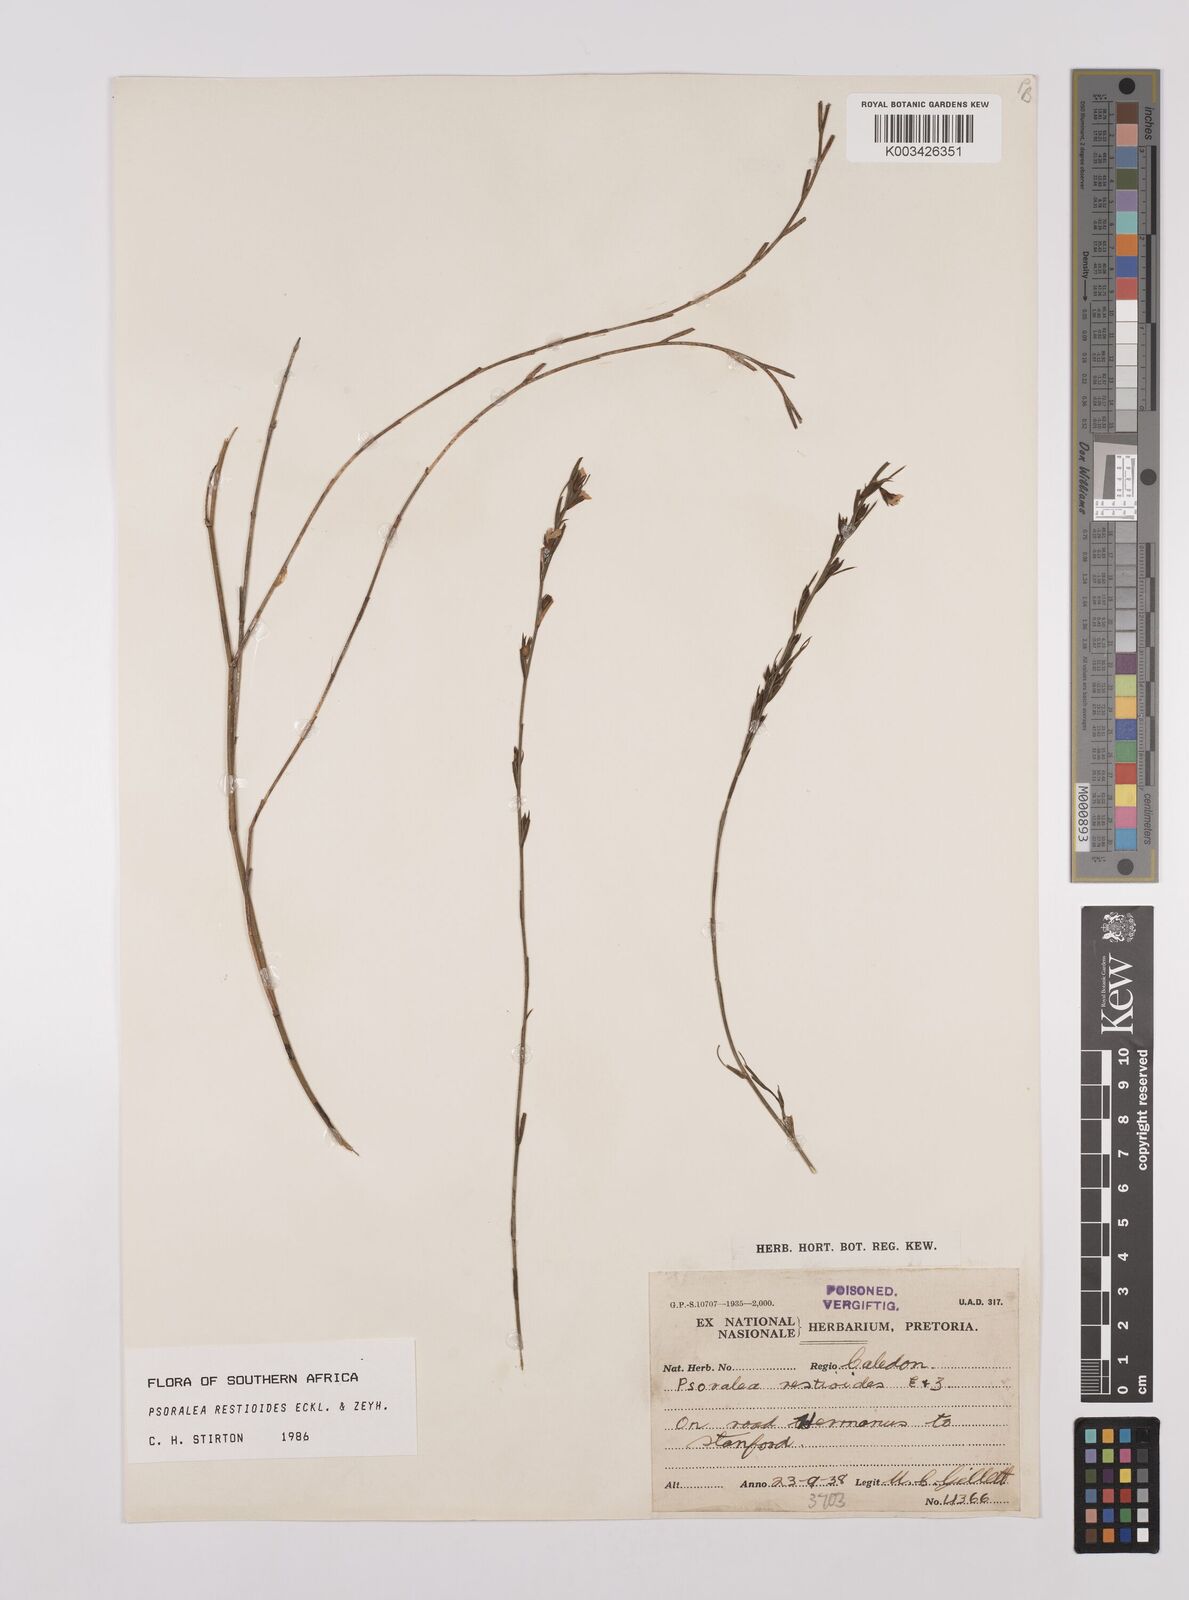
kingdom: Plantae
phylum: Tracheophyta
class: Magnoliopsida
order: Fabales
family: Fabaceae
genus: Psoralea
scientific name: Psoralea restioides
